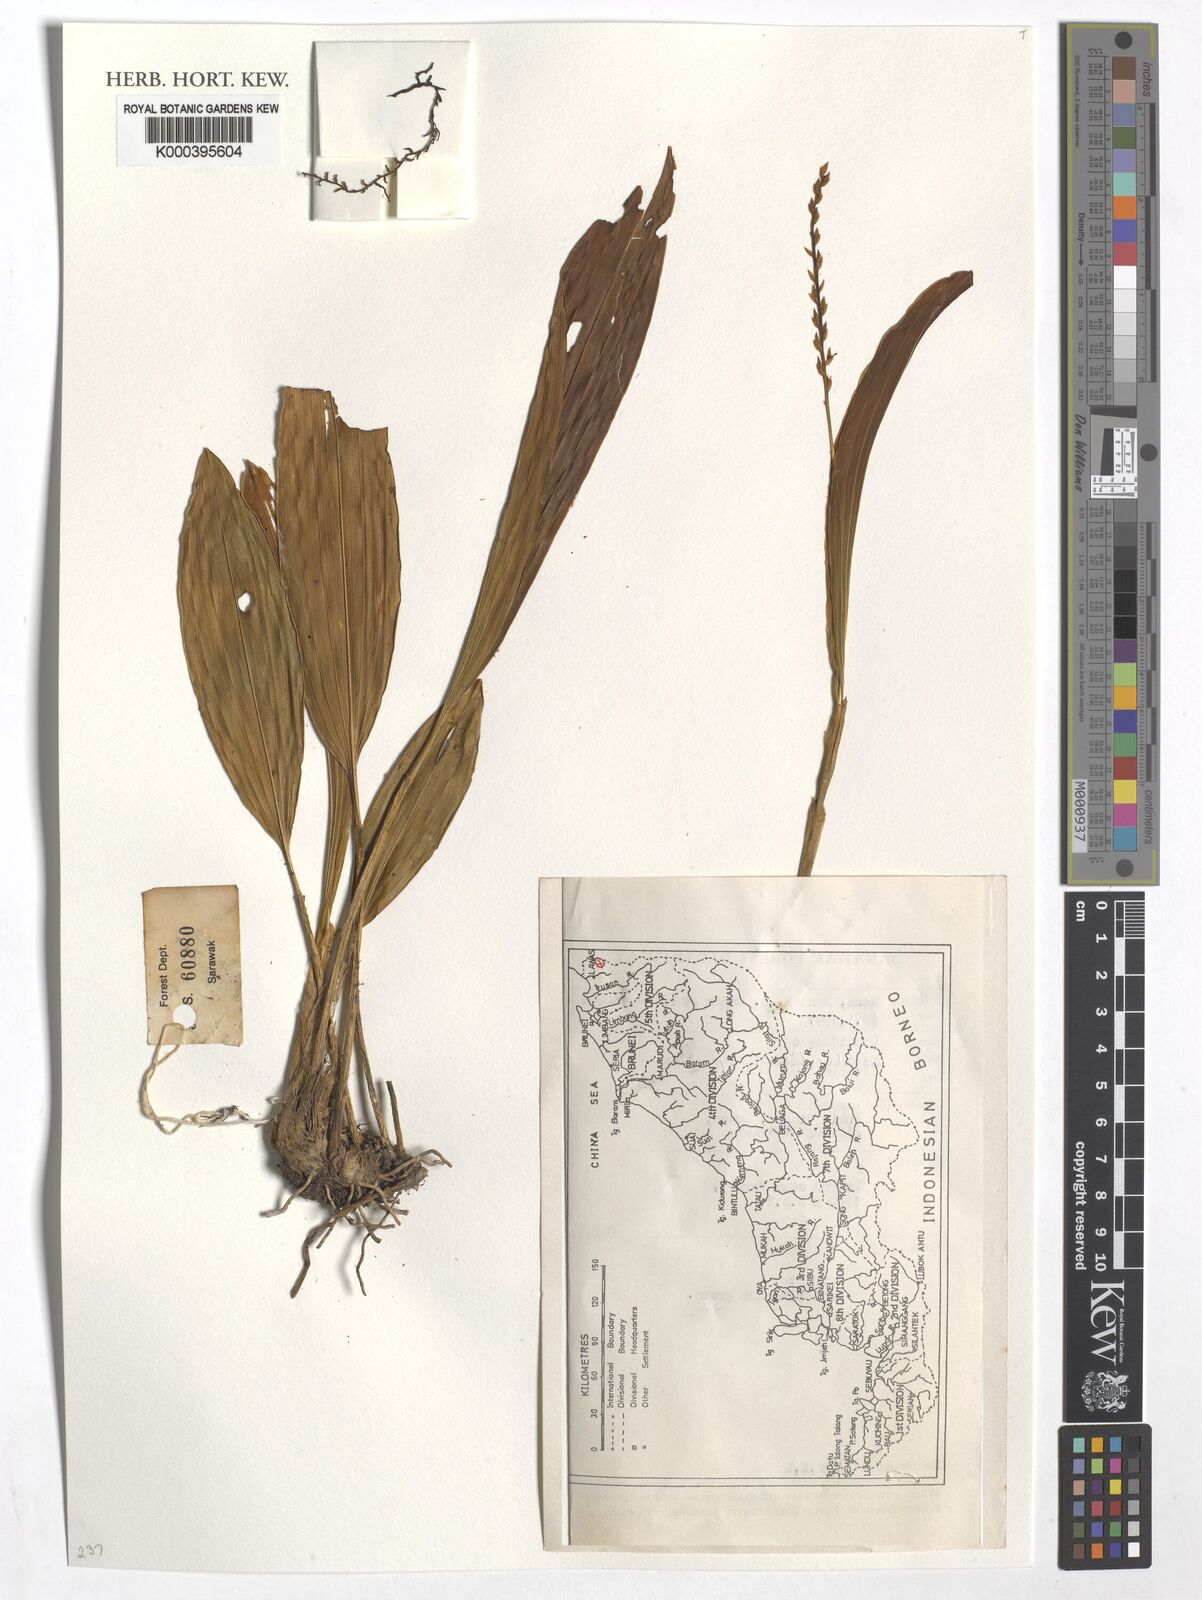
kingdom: Plantae
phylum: Tracheophyta
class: Liliopsida
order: Asparagales
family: Orchidaceae
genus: Coelogyne
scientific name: Coelogyne
